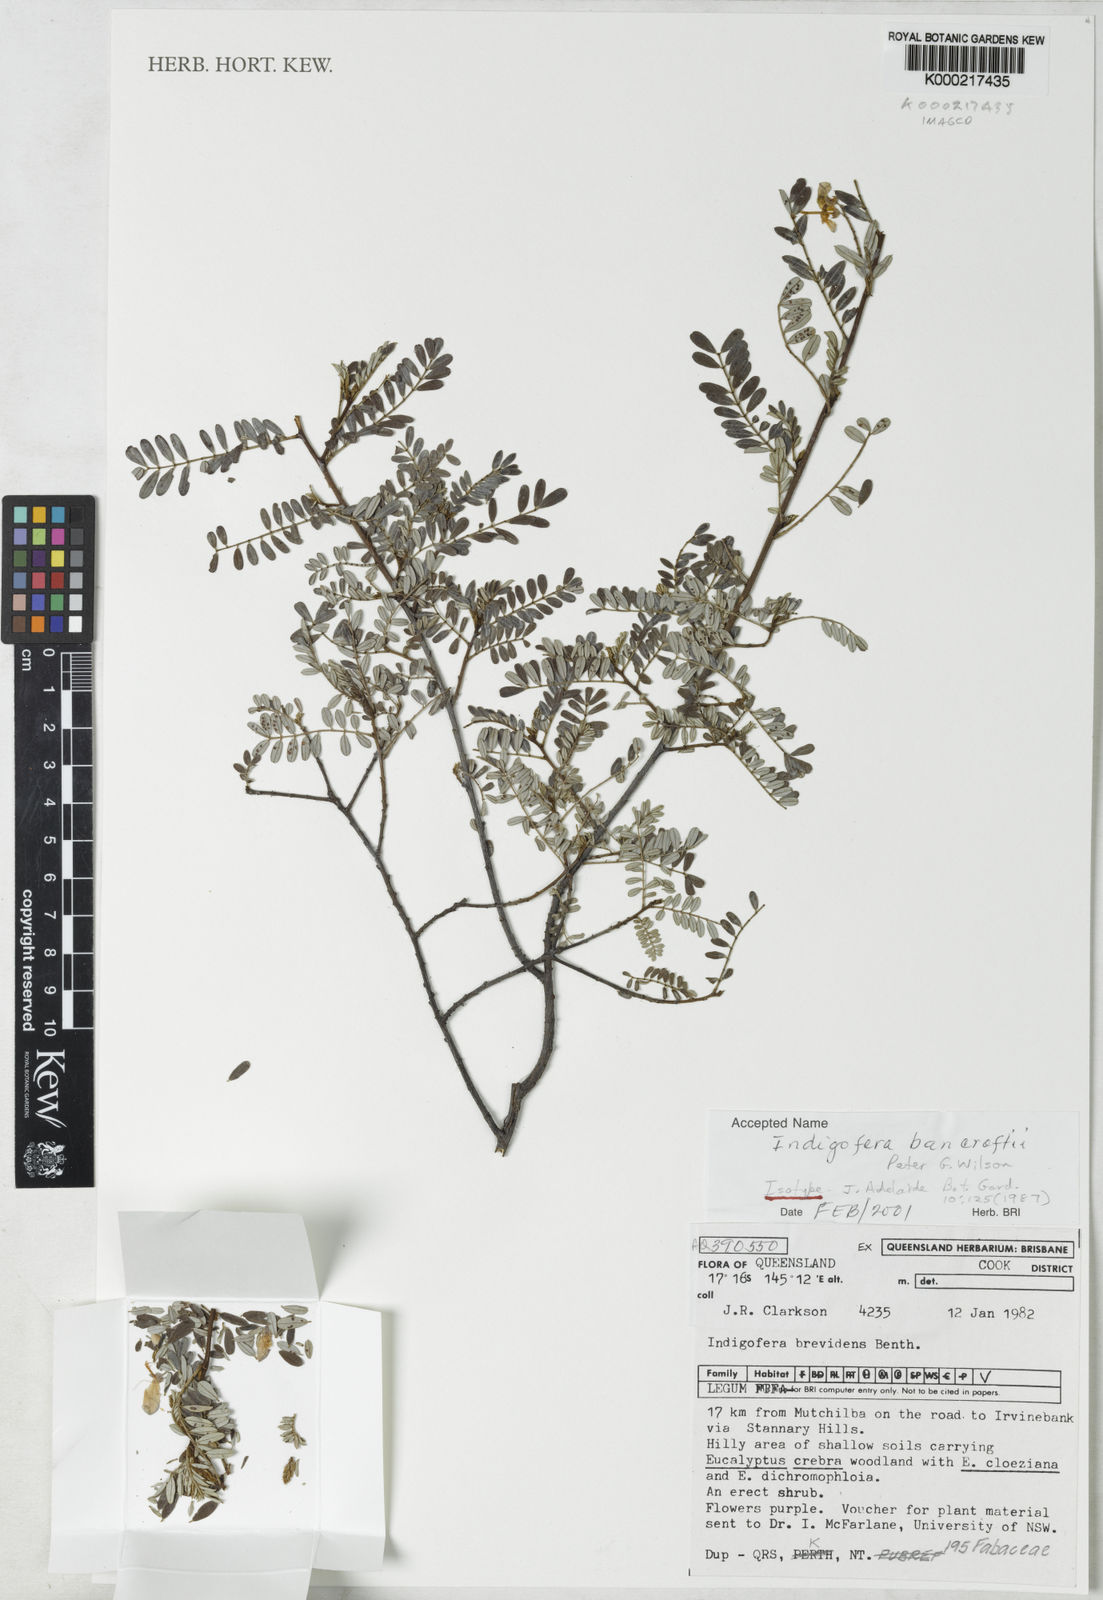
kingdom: Plantae
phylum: Tracheophyta
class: Magnoliopsida
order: Fabales
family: Fabaceae
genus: Indigofera
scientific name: Indigofera bancroftii
